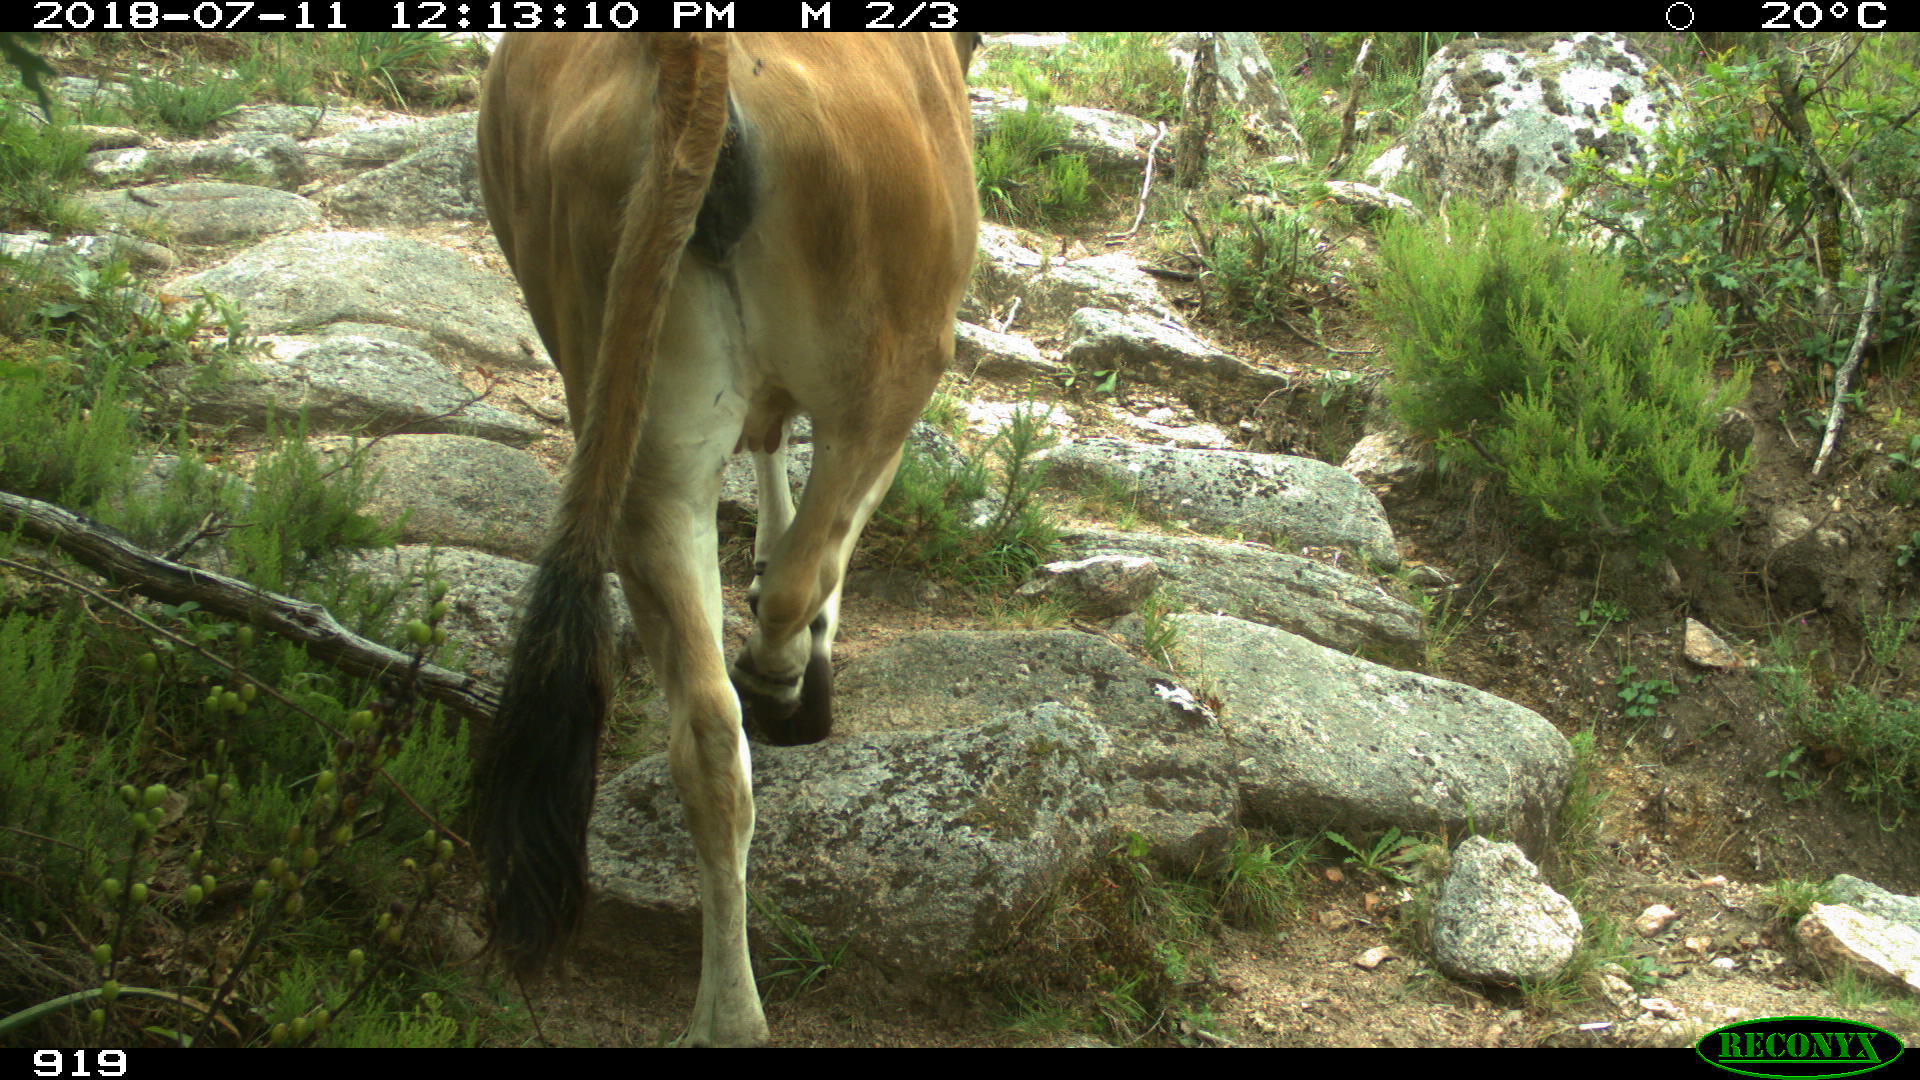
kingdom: Animalia
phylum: Chordata
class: Mammalia
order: Artiodactyla
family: Bovidae
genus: Bos
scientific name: Bos taurus
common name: Domesticated cattle
